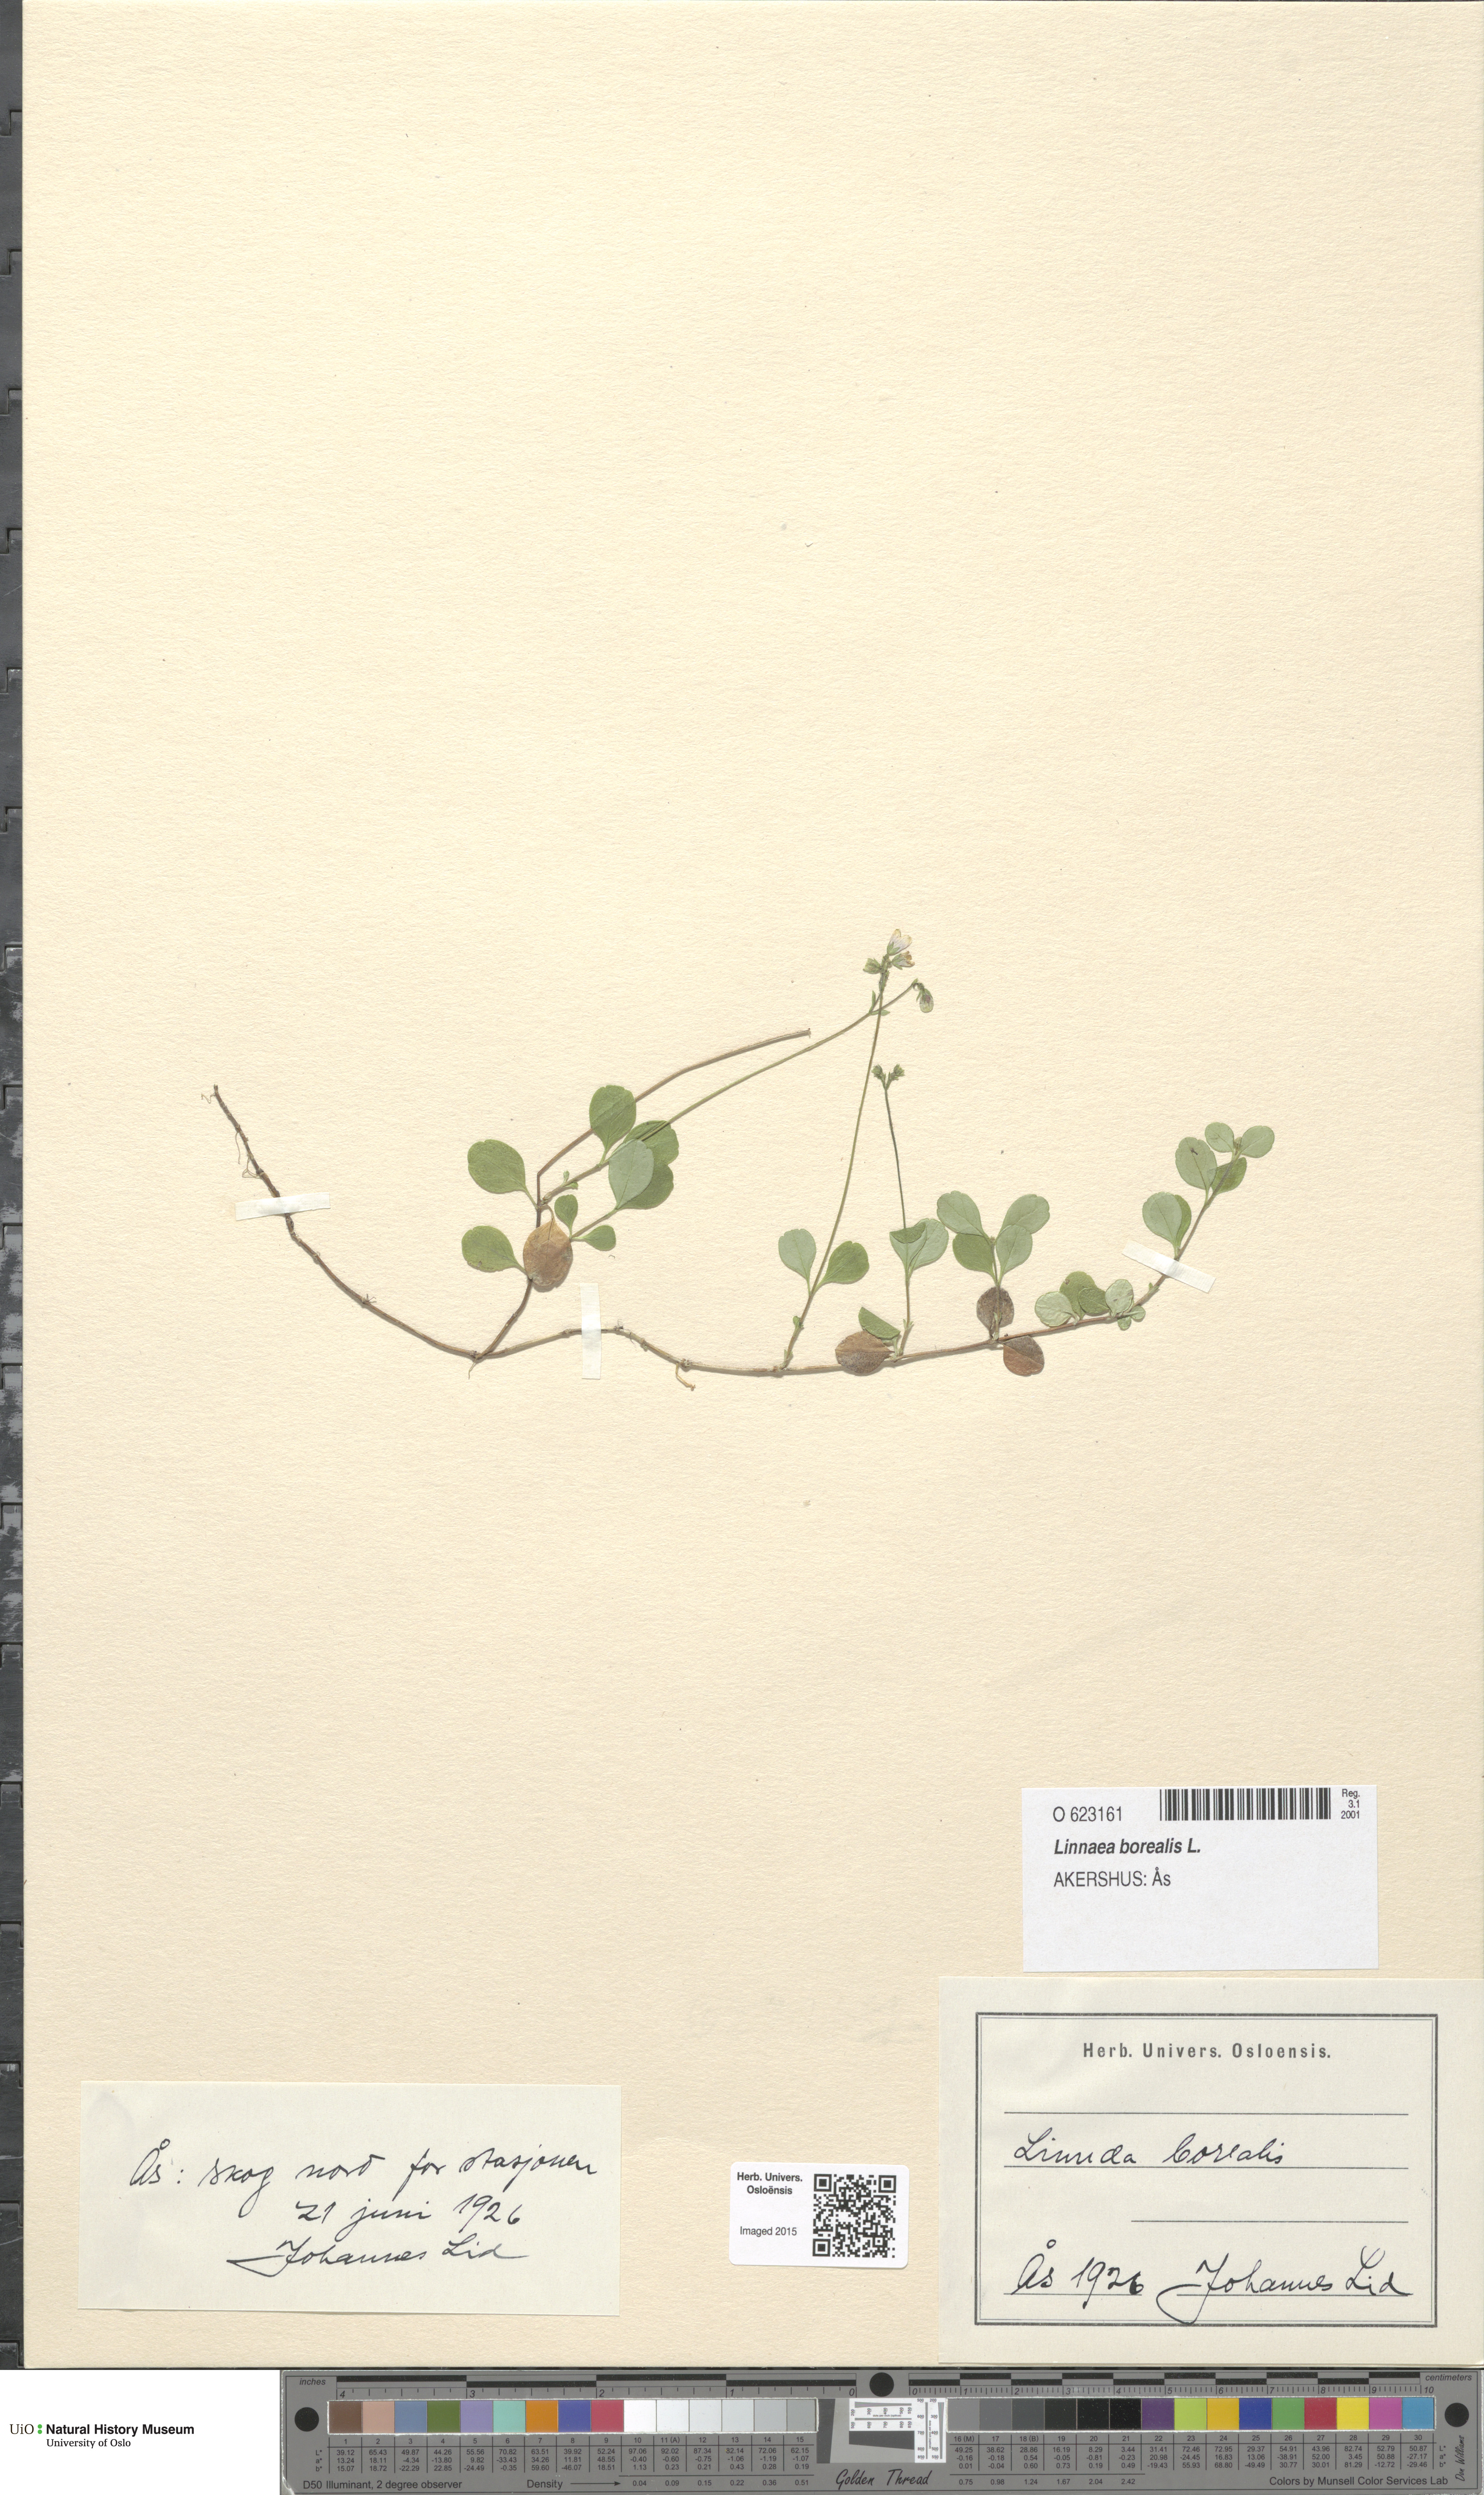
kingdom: Plantae
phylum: Tracheophyta
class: Magnoliopsida
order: Dipsacales
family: Caprifoliaceae
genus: Linnaea
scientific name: Linnaea borealis
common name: Twinflower
